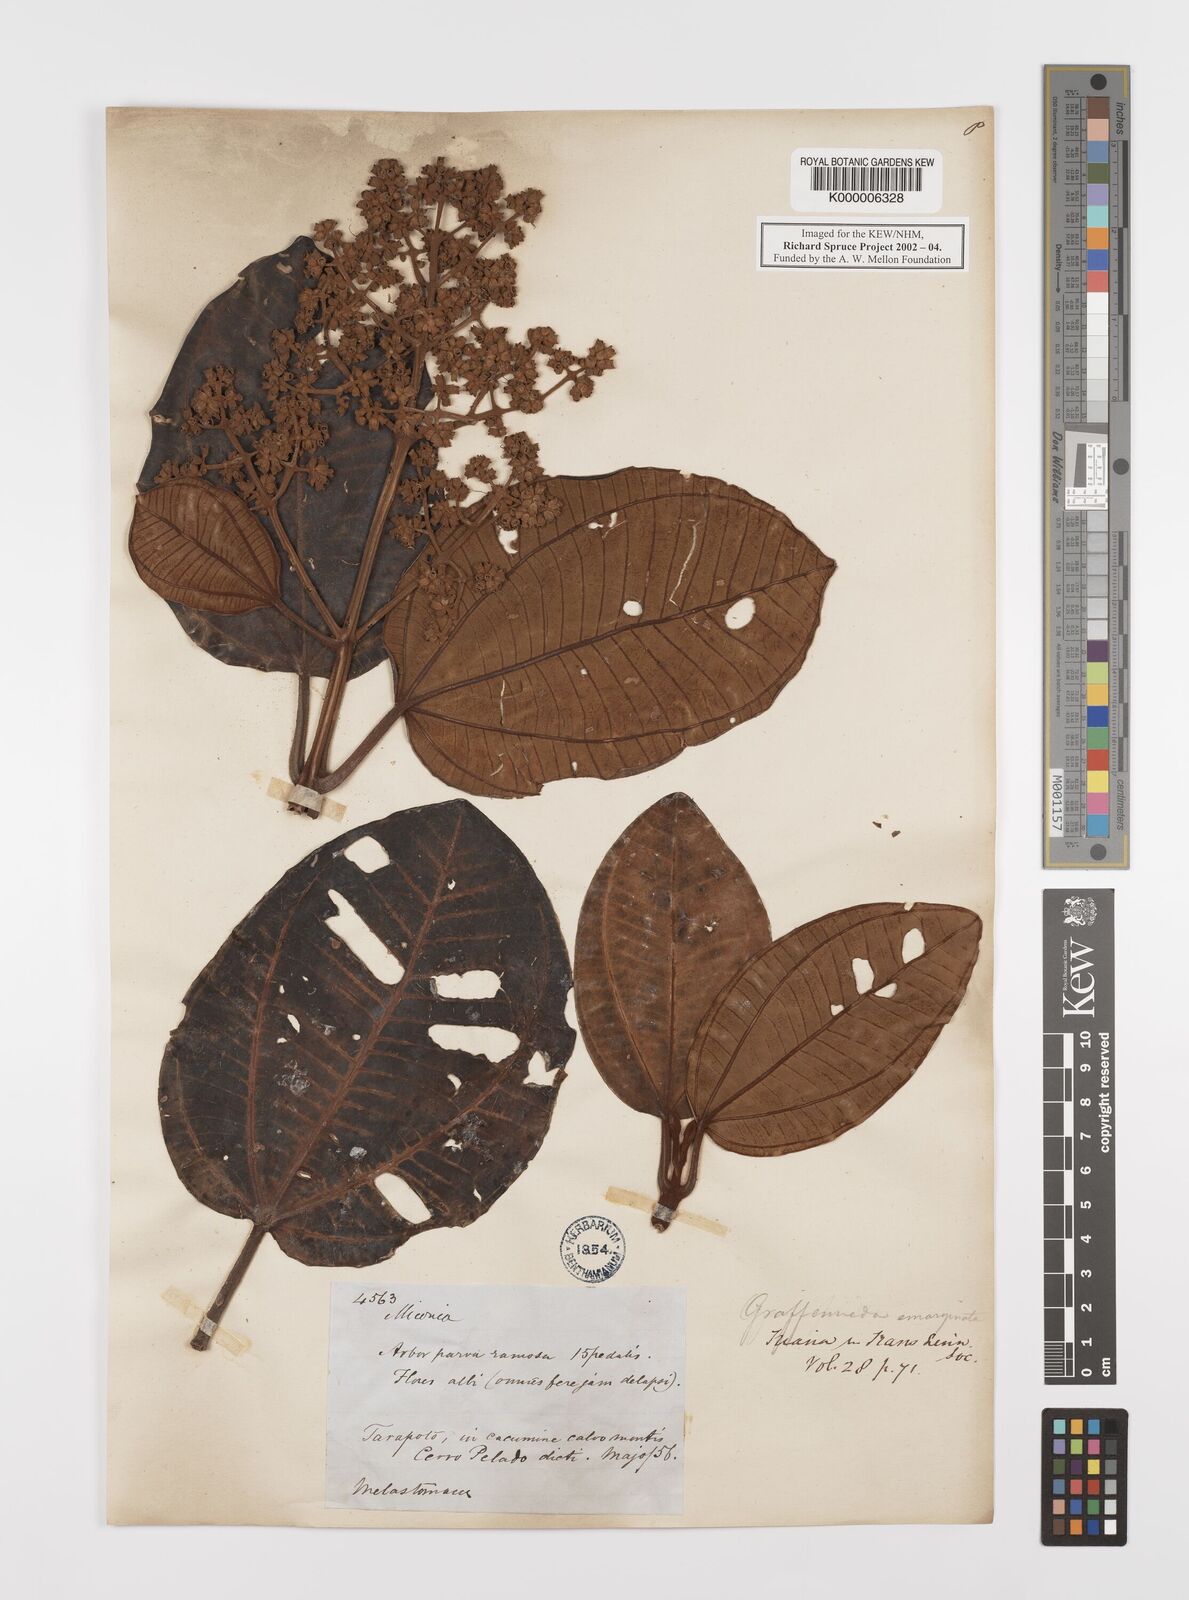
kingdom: Plantae
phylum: Tracheophyta
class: Magnoliopsida
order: Myrtales
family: Melastomataceae
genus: Graffenrieda
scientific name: Graffenrieda emarginata
